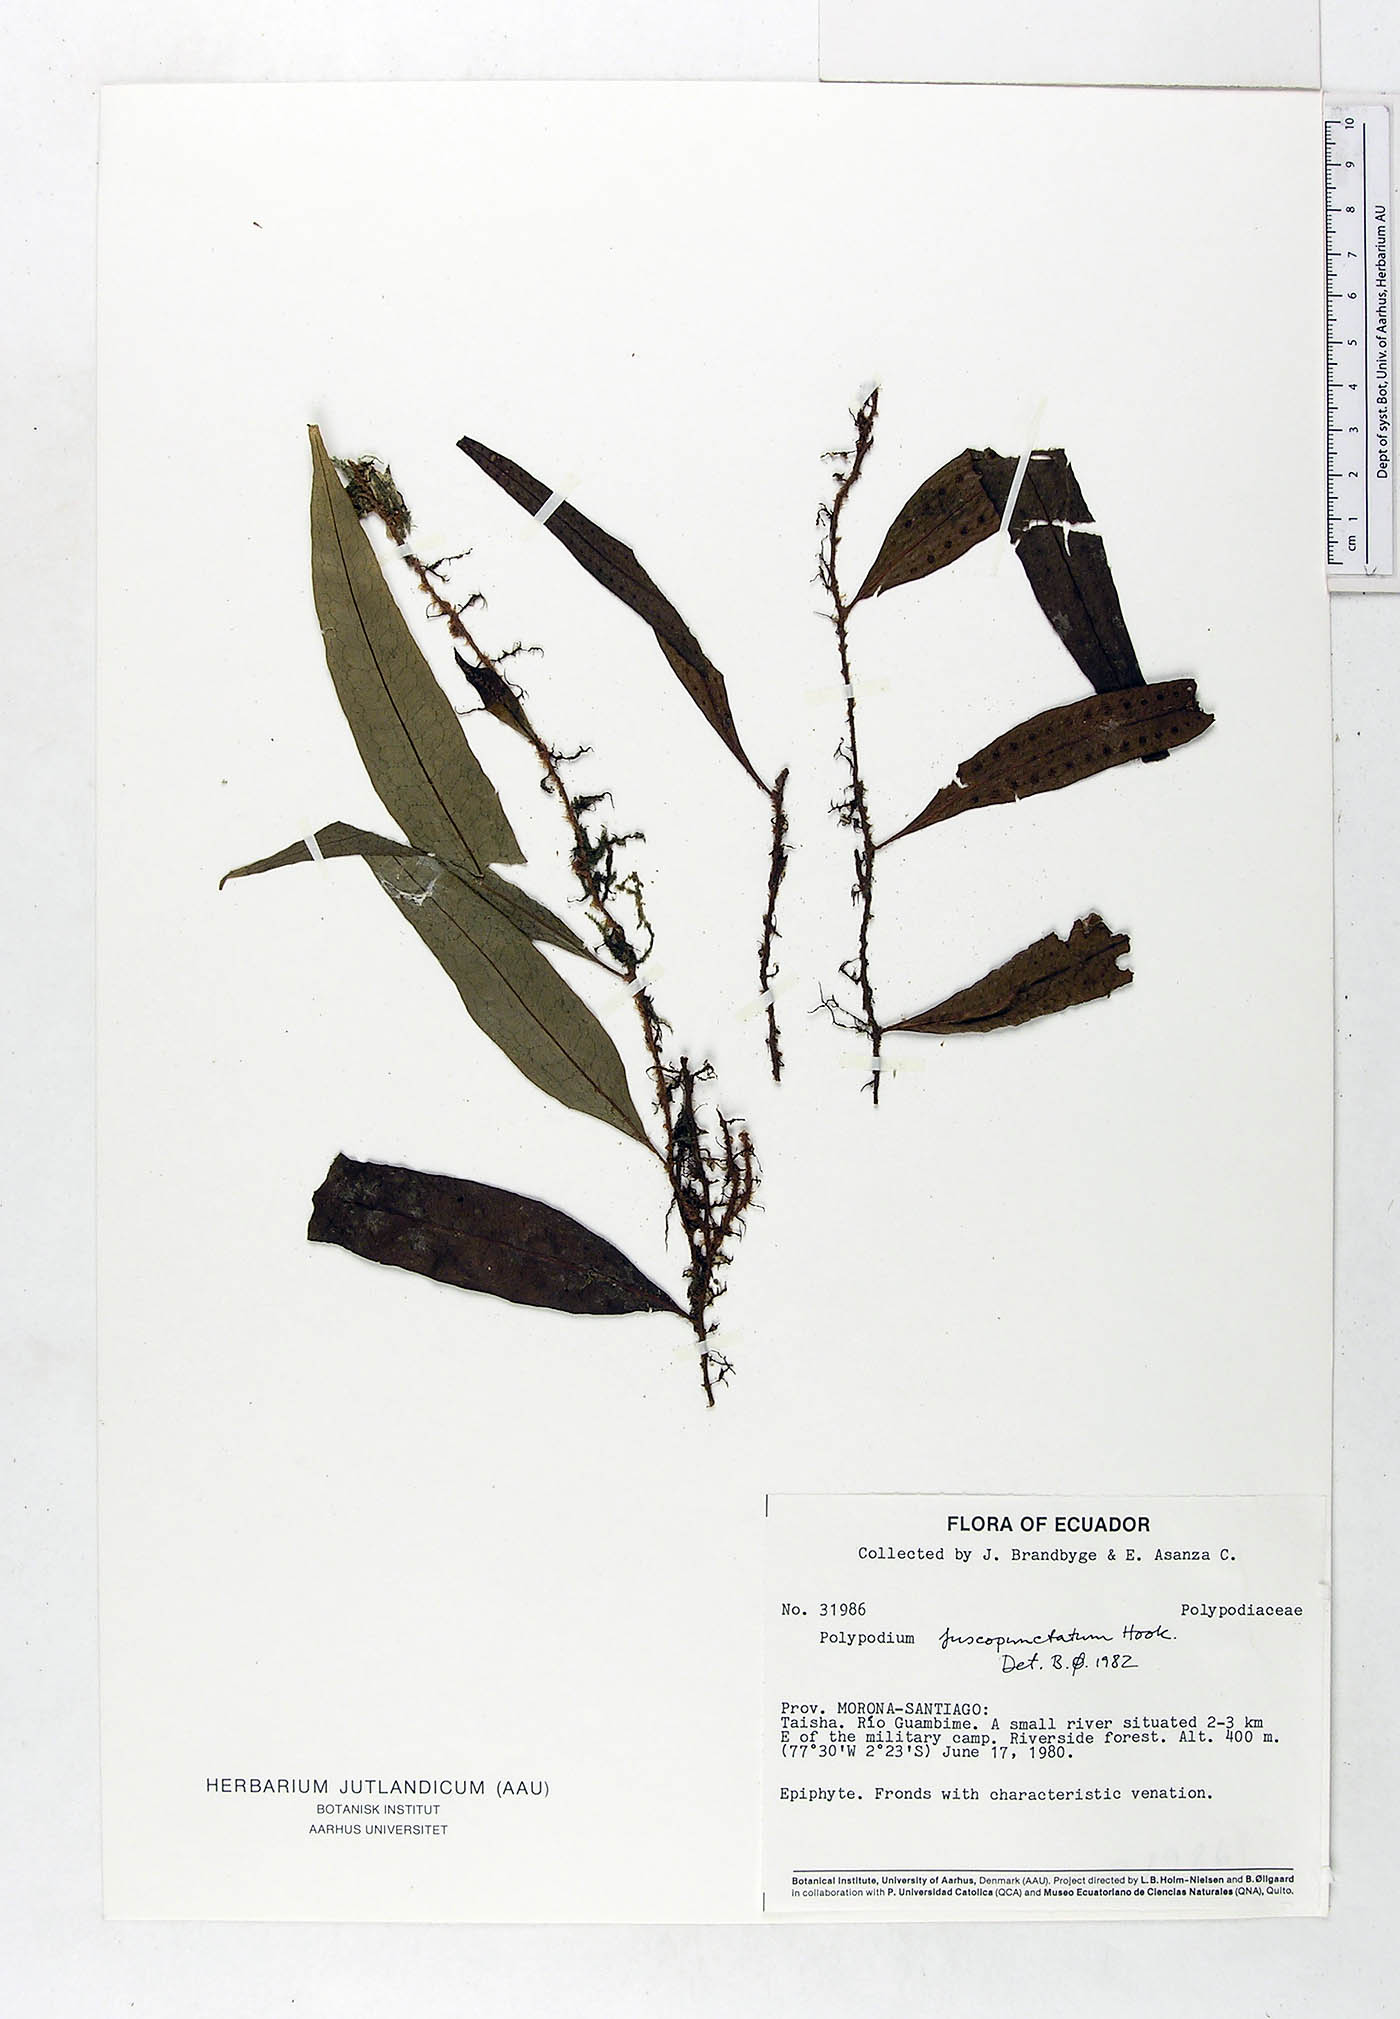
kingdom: Plantae
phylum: Tracheophyta
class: Polypodiopsida
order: Polypodiales
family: Polypodiaceae
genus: Microgramma
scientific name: Microgramma dictyophylla
